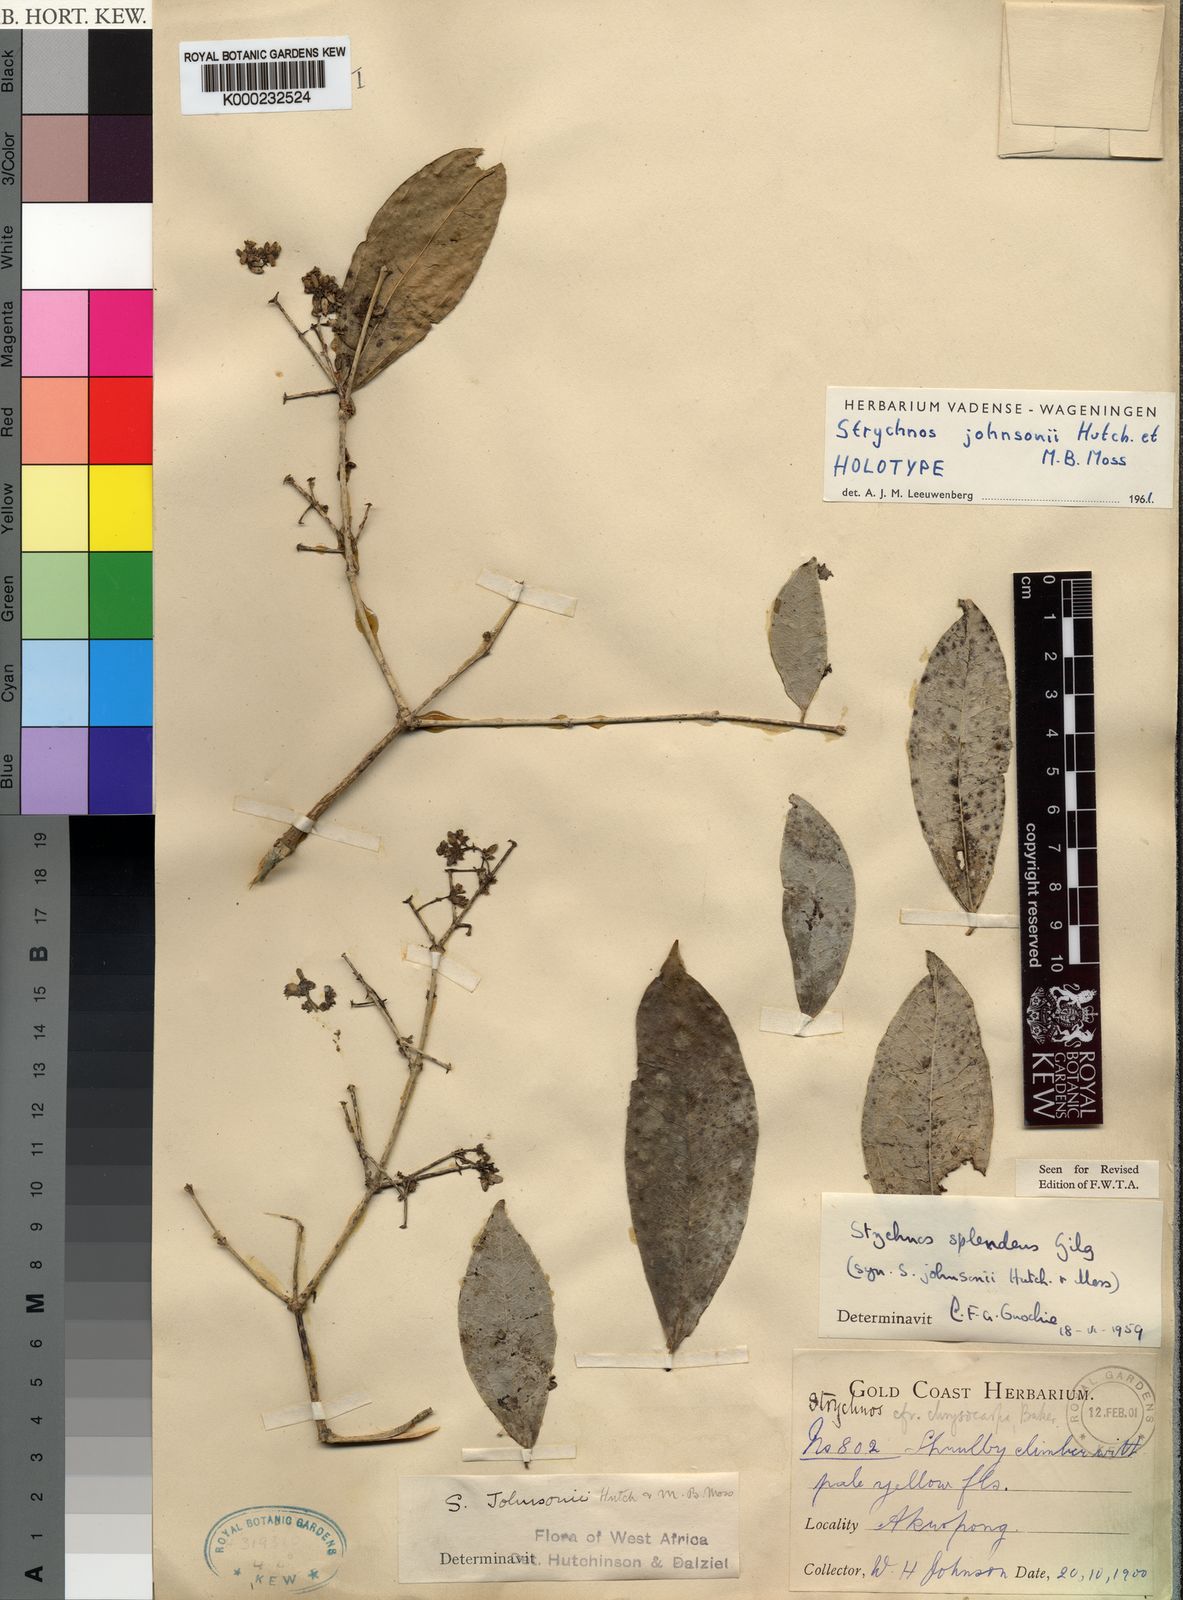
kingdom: Plantae
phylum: Tracheophyta
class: Magnoliopsida
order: Gentianales
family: Loganiaceae
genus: Strychnos
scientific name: Strychnos johnsonii
